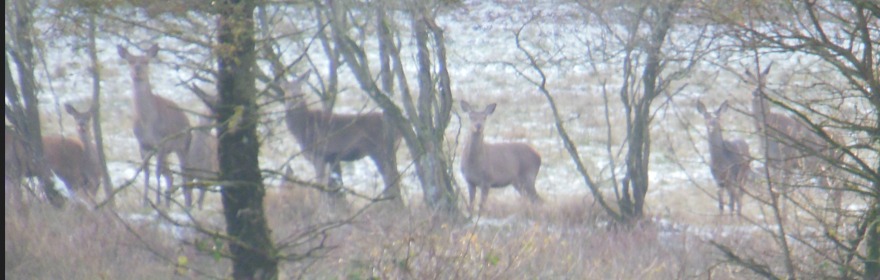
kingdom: Animalia
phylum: Chordata
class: Mammalia
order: Artiodactyla
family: Cervidae
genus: Cervus
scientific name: Cervus elaphus
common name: Krondyr
